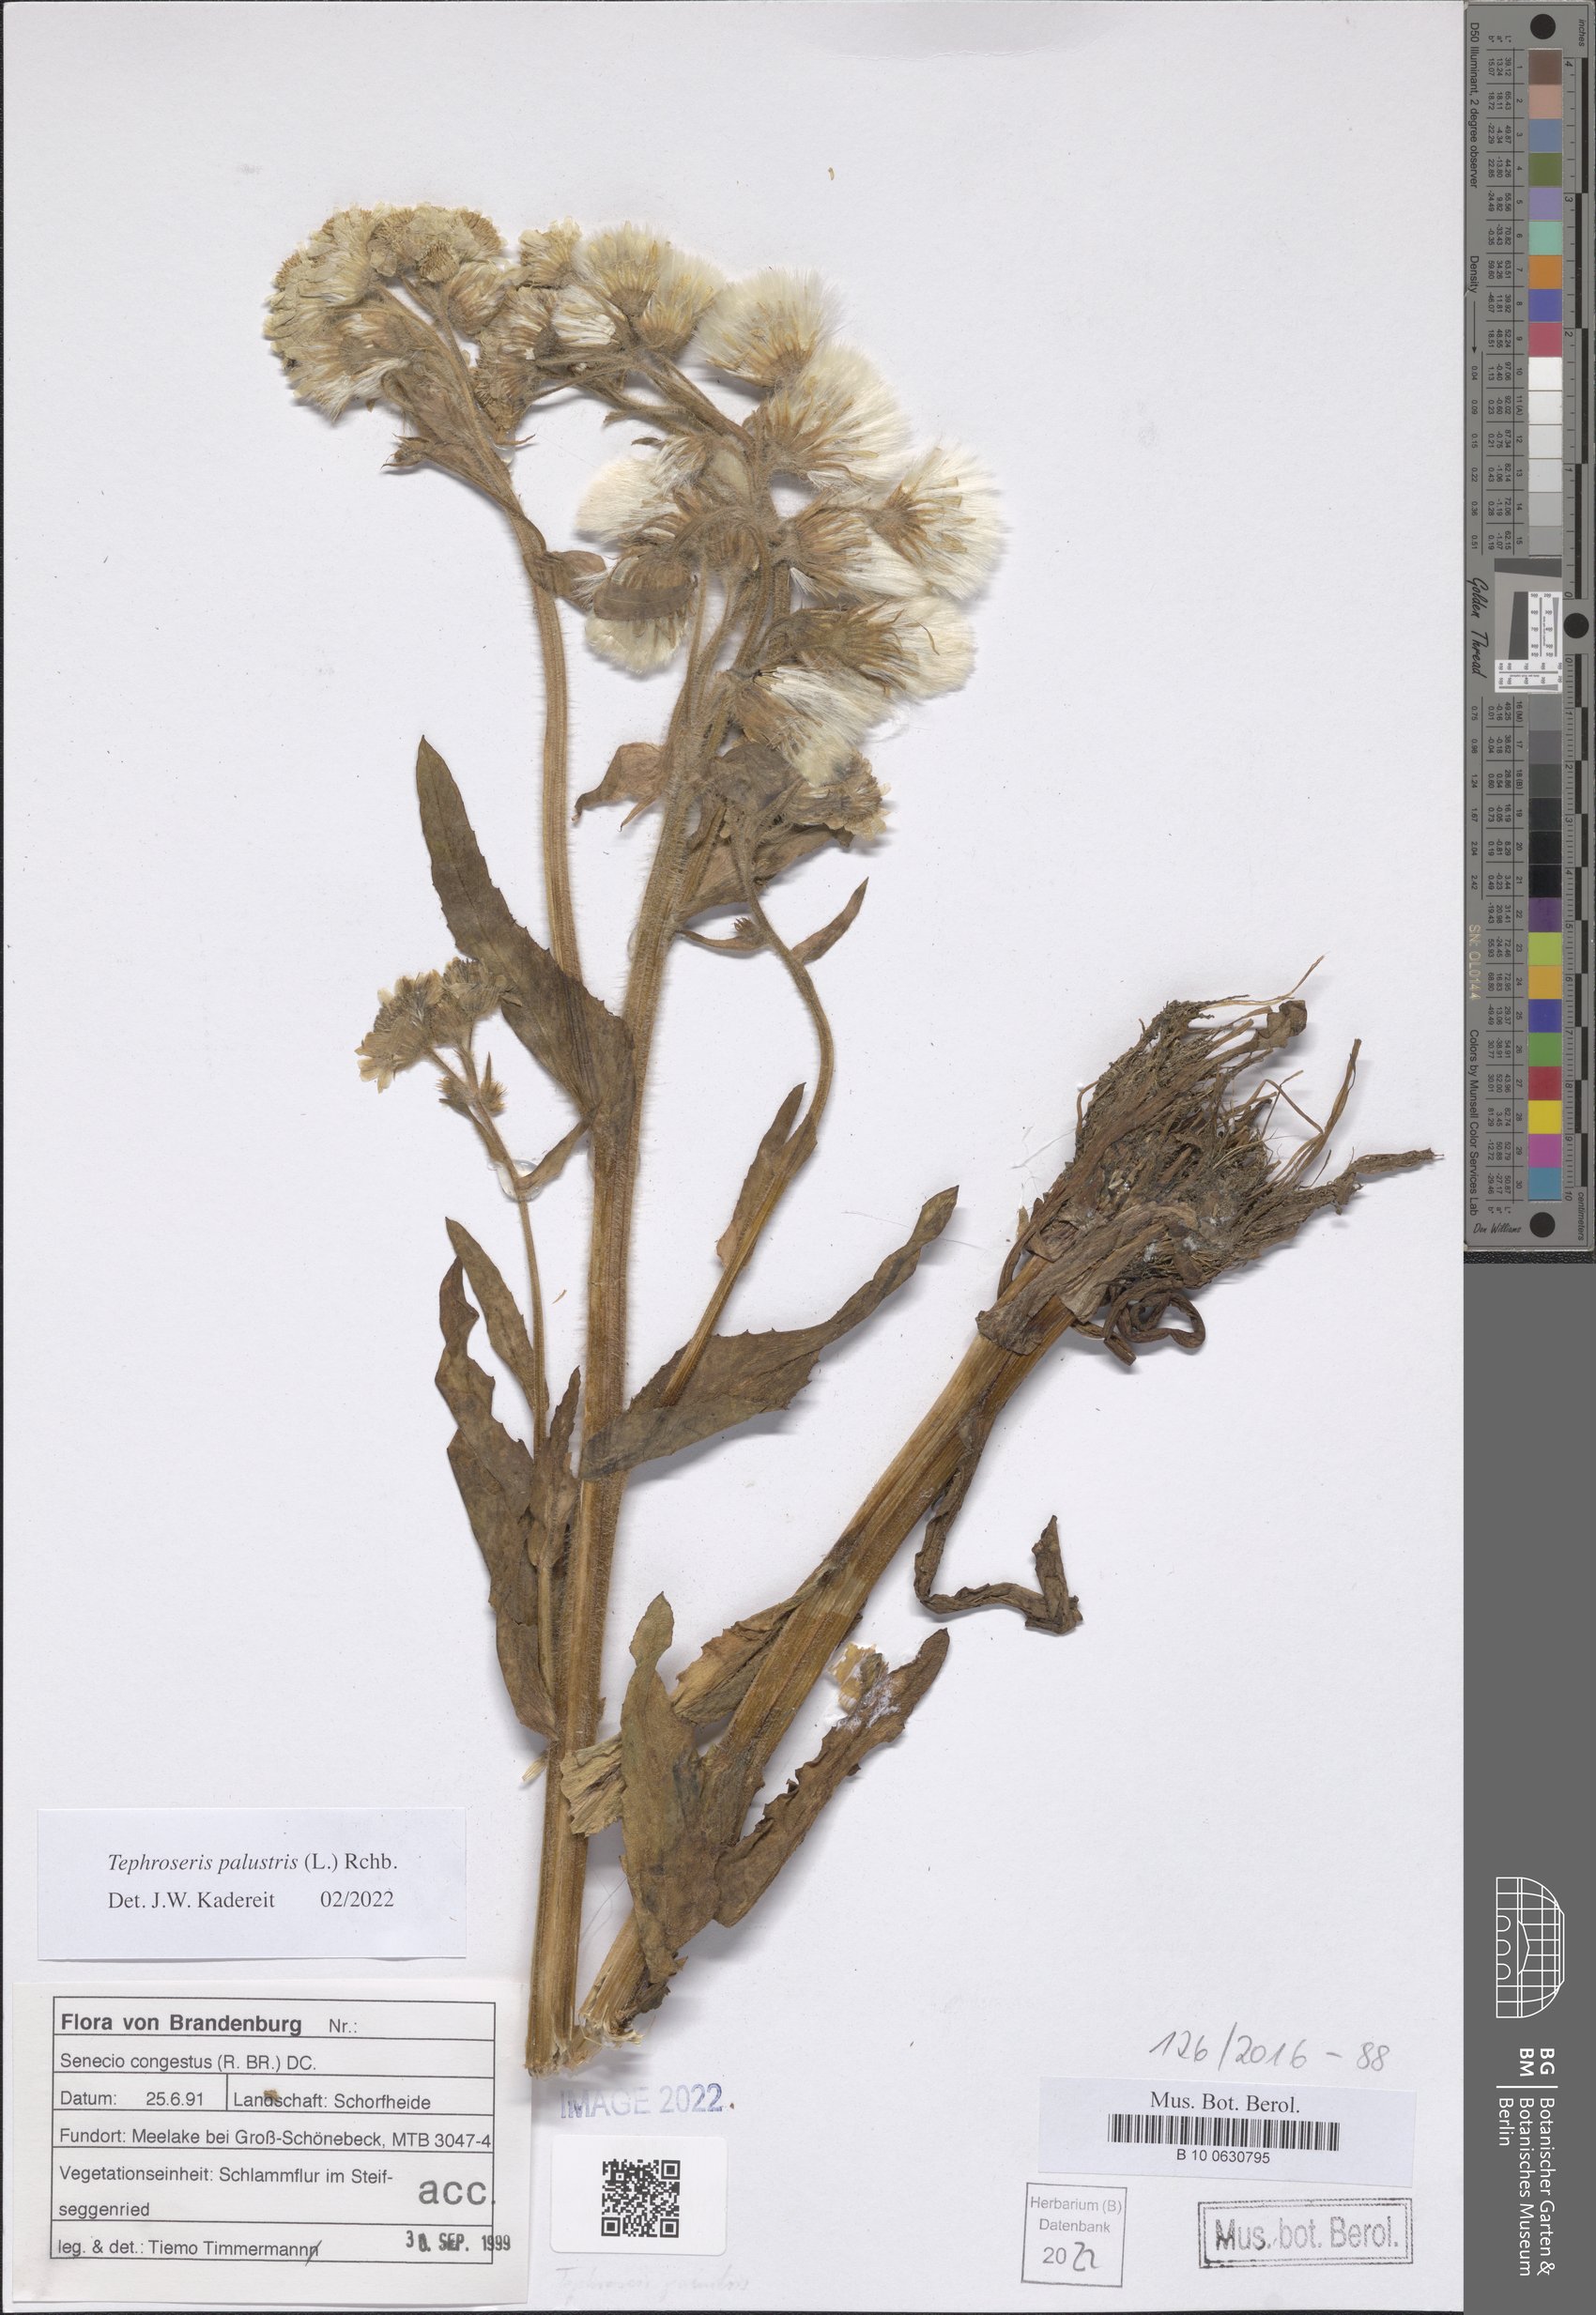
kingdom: Plantae
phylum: Tracheophyta
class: Magnoliopsida
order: Asterales
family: Asteraceae
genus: Tephroseris
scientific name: Tephroseris palustris
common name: Marsh fleawort
